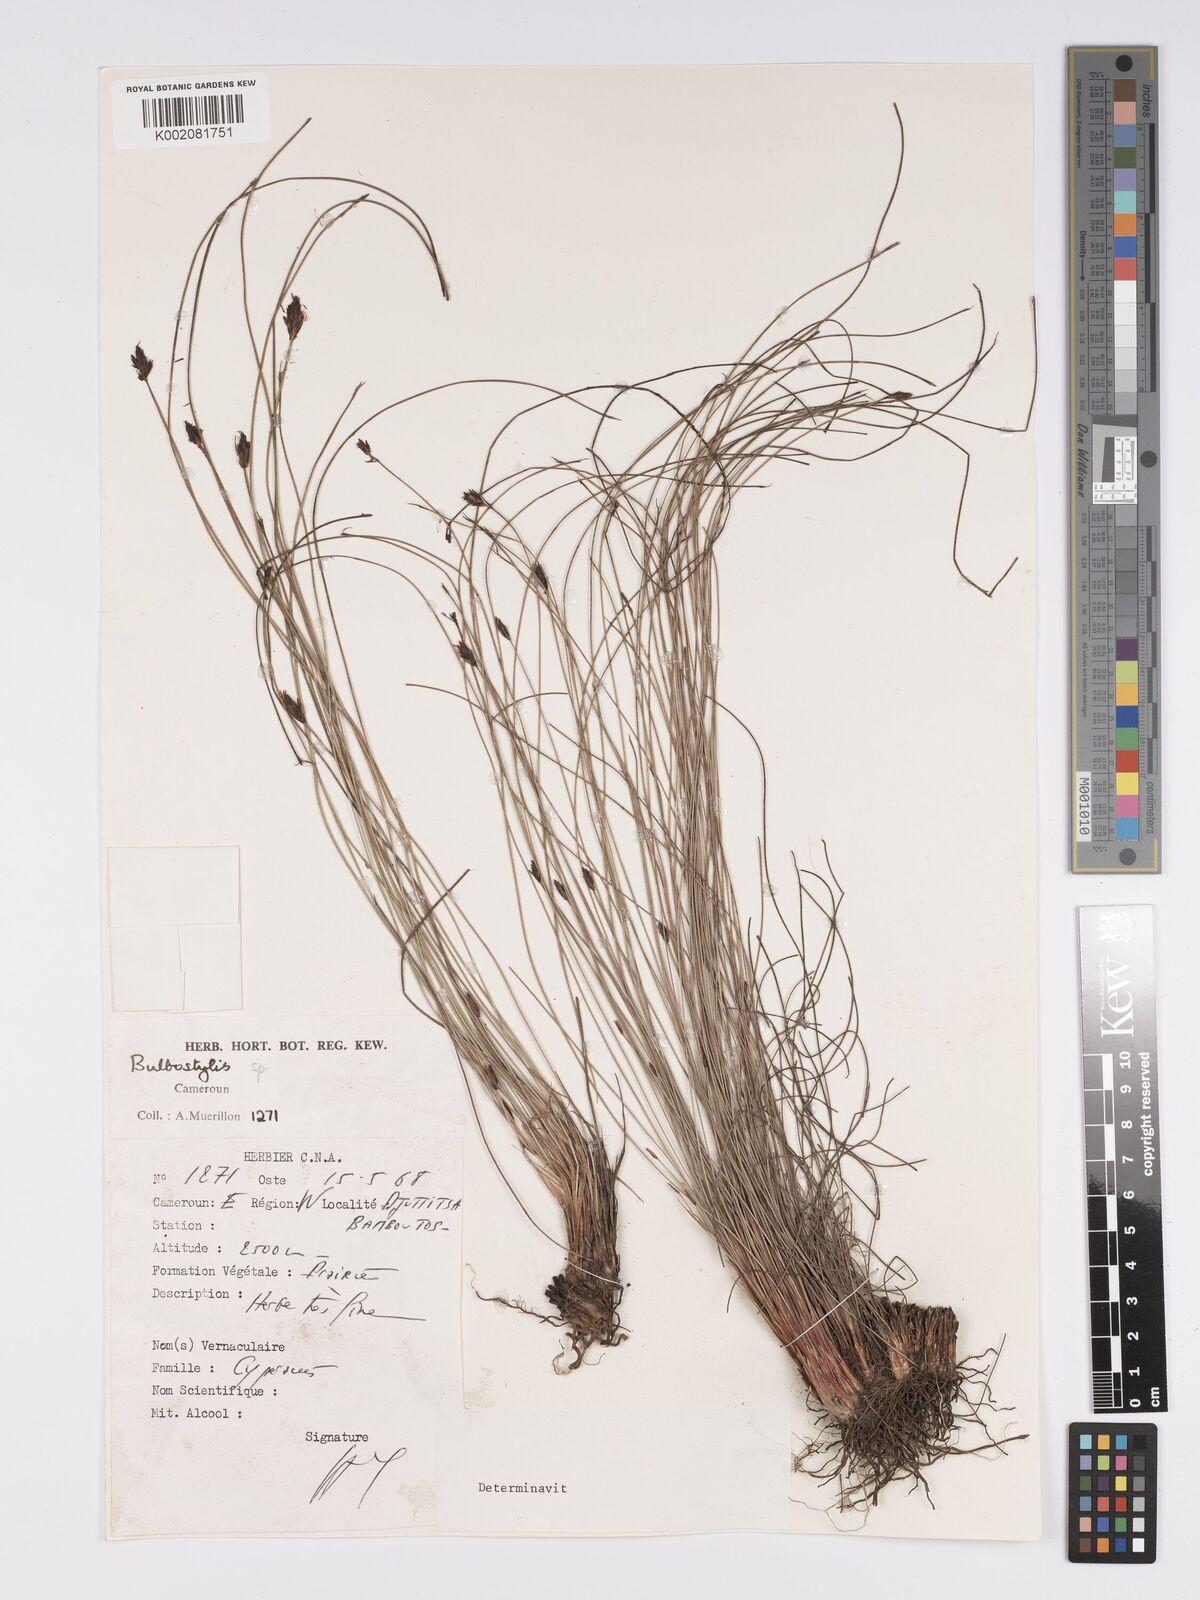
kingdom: Plantae
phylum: Tracheophyta
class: Liliopsida
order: Poales
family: Cyperaceae
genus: Bulbostylis
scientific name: Bulbostylis oritrephes
